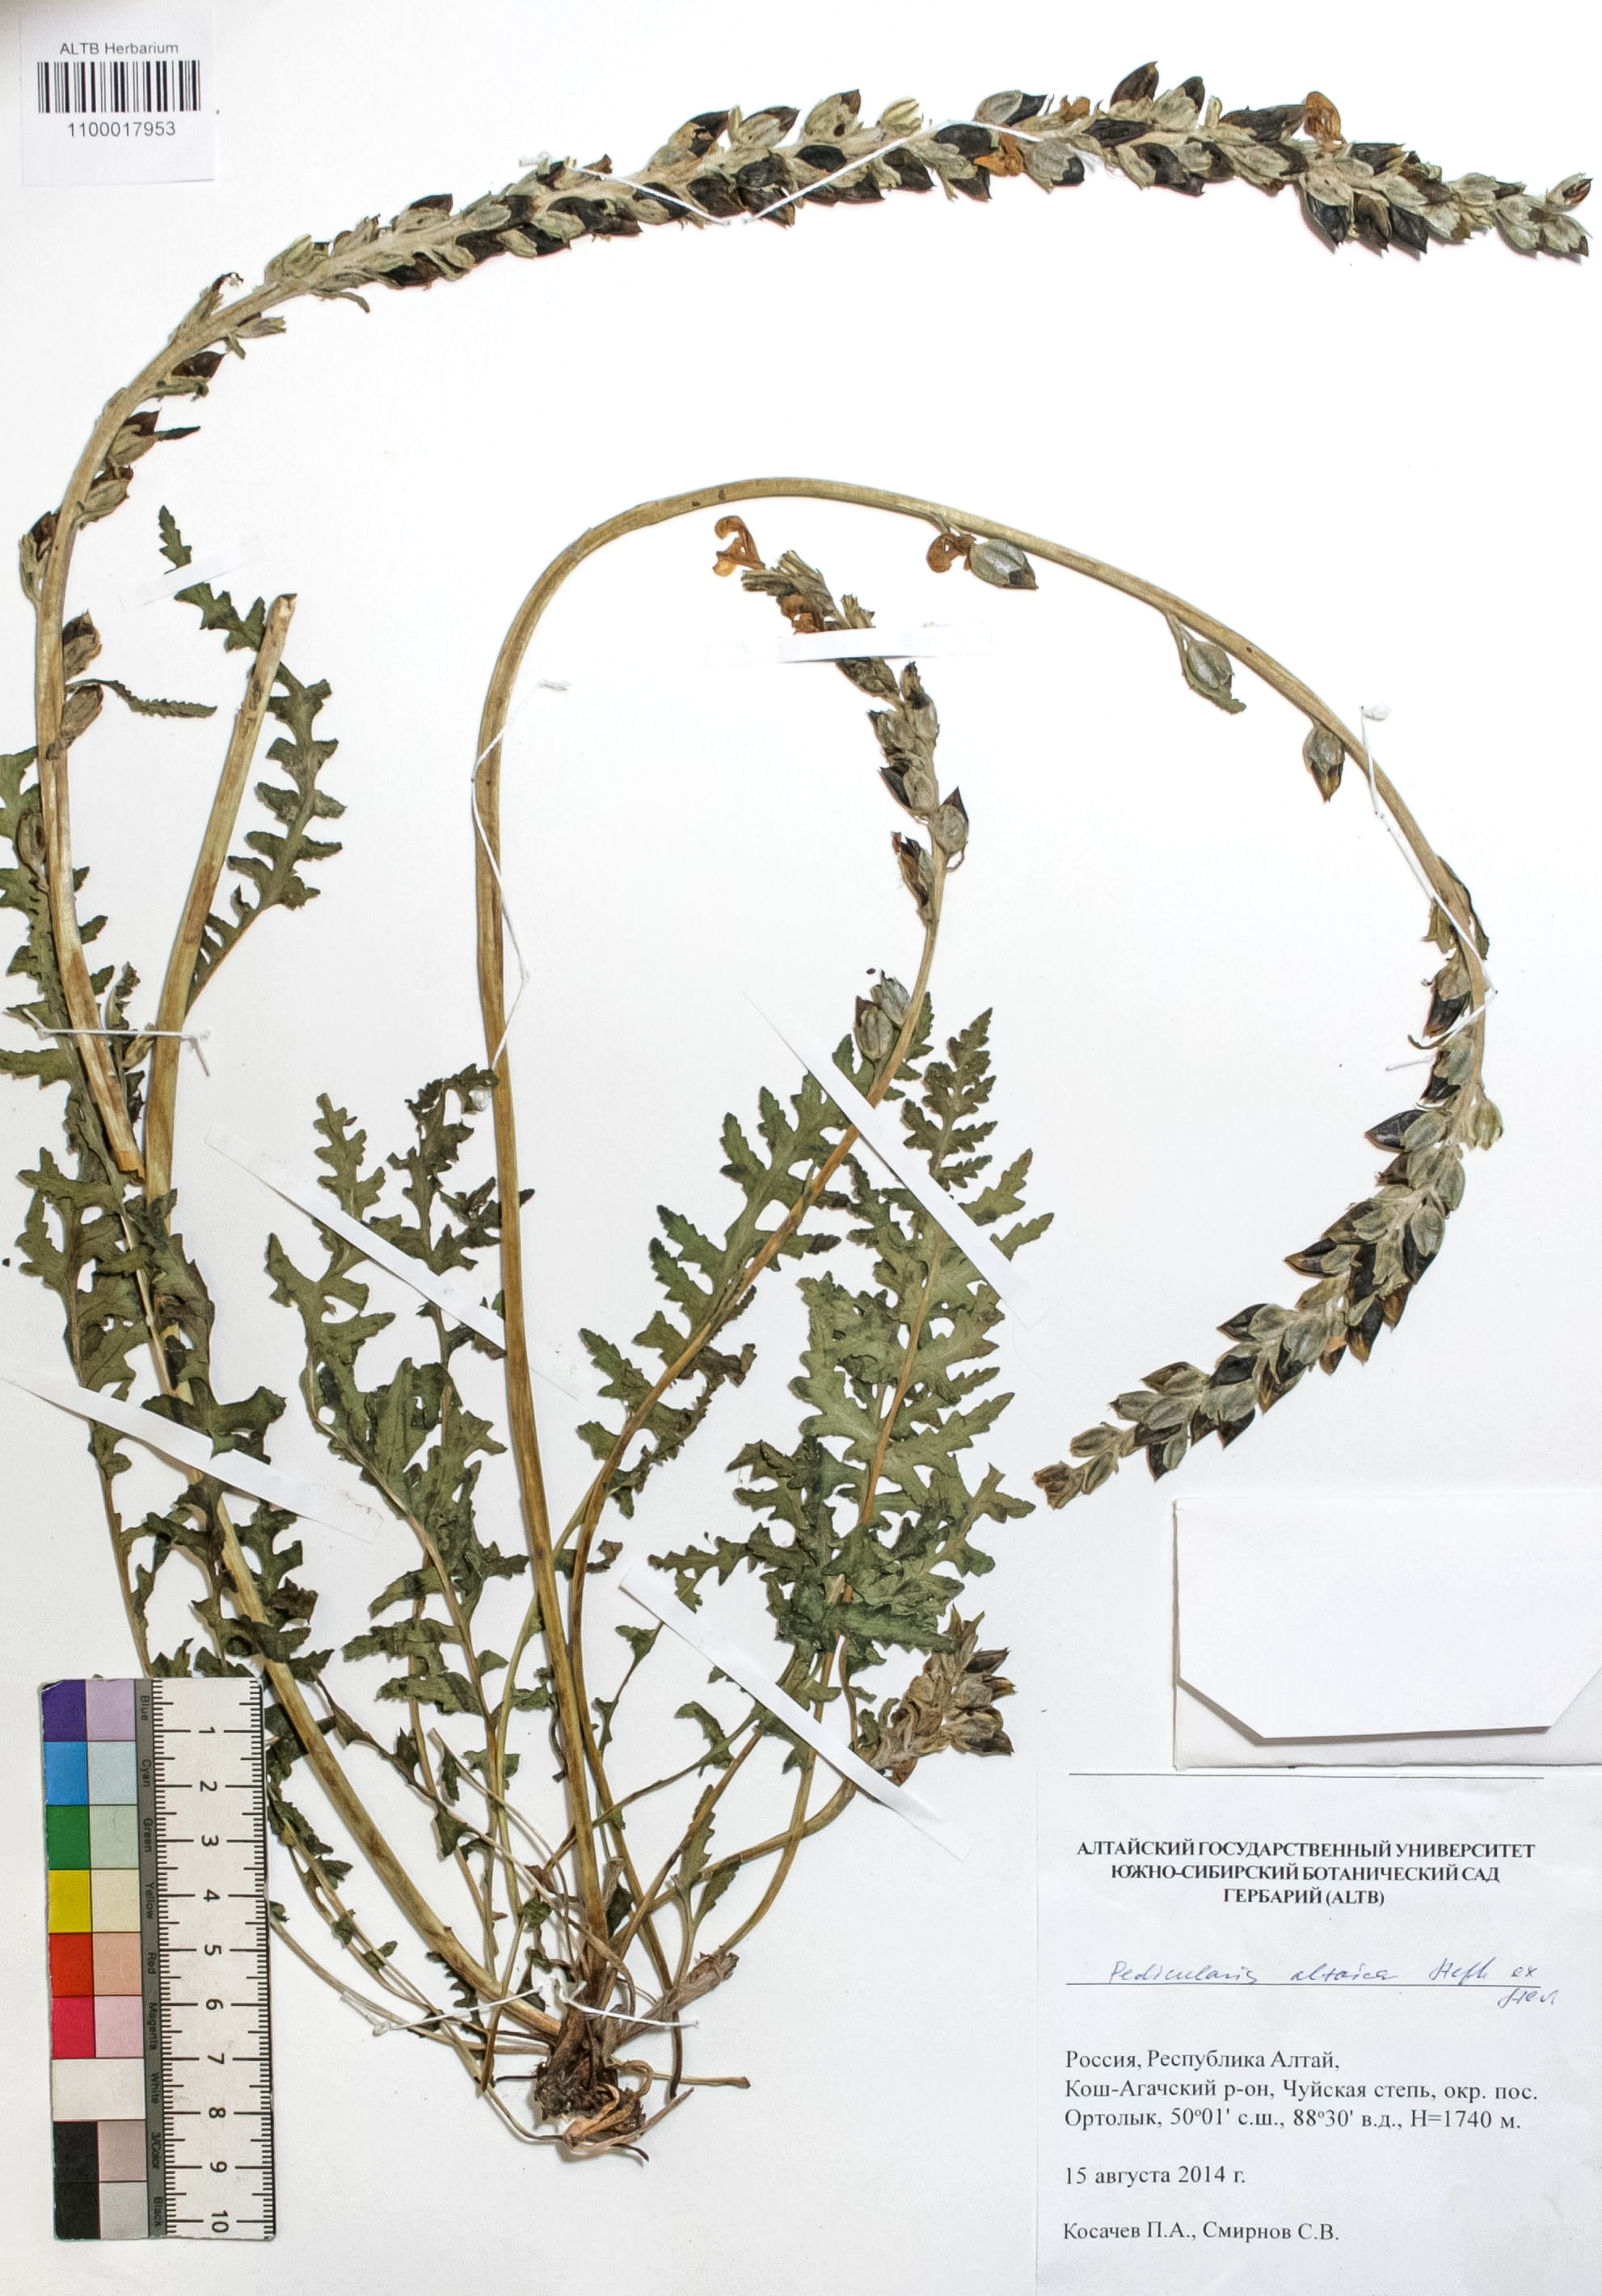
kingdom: Plantae
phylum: Tracheophyta
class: Magnoliopsida
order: Lamiales
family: Orobanchaceae
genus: Pedicularis
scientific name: Pedicularis altaica
